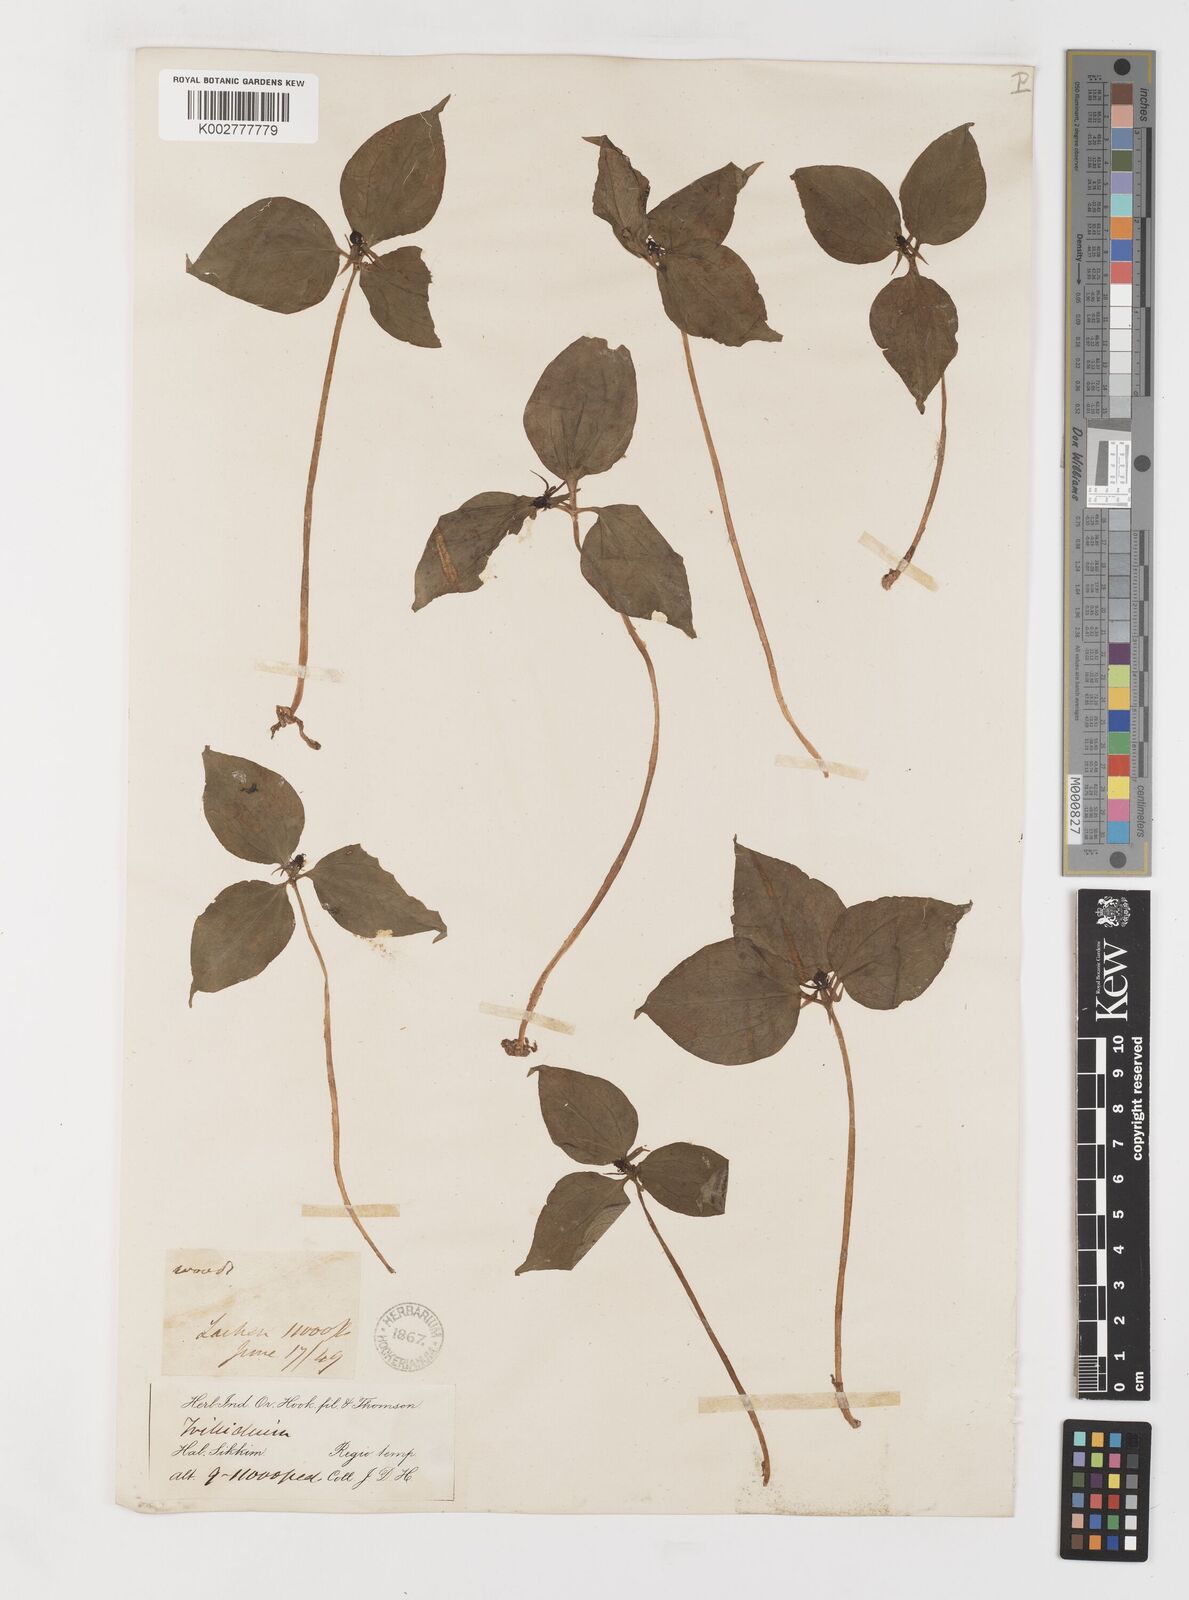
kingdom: Plantae
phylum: Tracheophyta
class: Liliopsida
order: Liliales
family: Melanthiaceae
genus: Trillium
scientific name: Trillium govanianum
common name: Himalayan trillium
